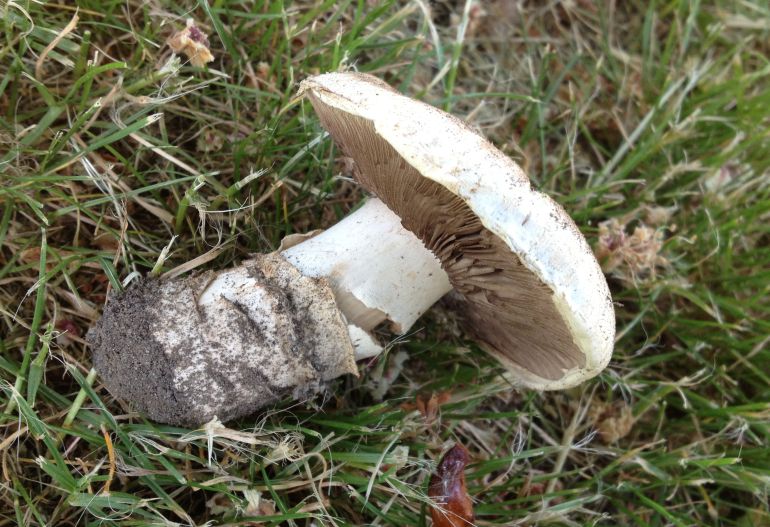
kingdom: Fungi
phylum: Basidiomycota
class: Agaricomycetes
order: Agaricales
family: Agaricaceae
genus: Agaricus
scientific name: Agaricus bitorquis
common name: vej-champignon
